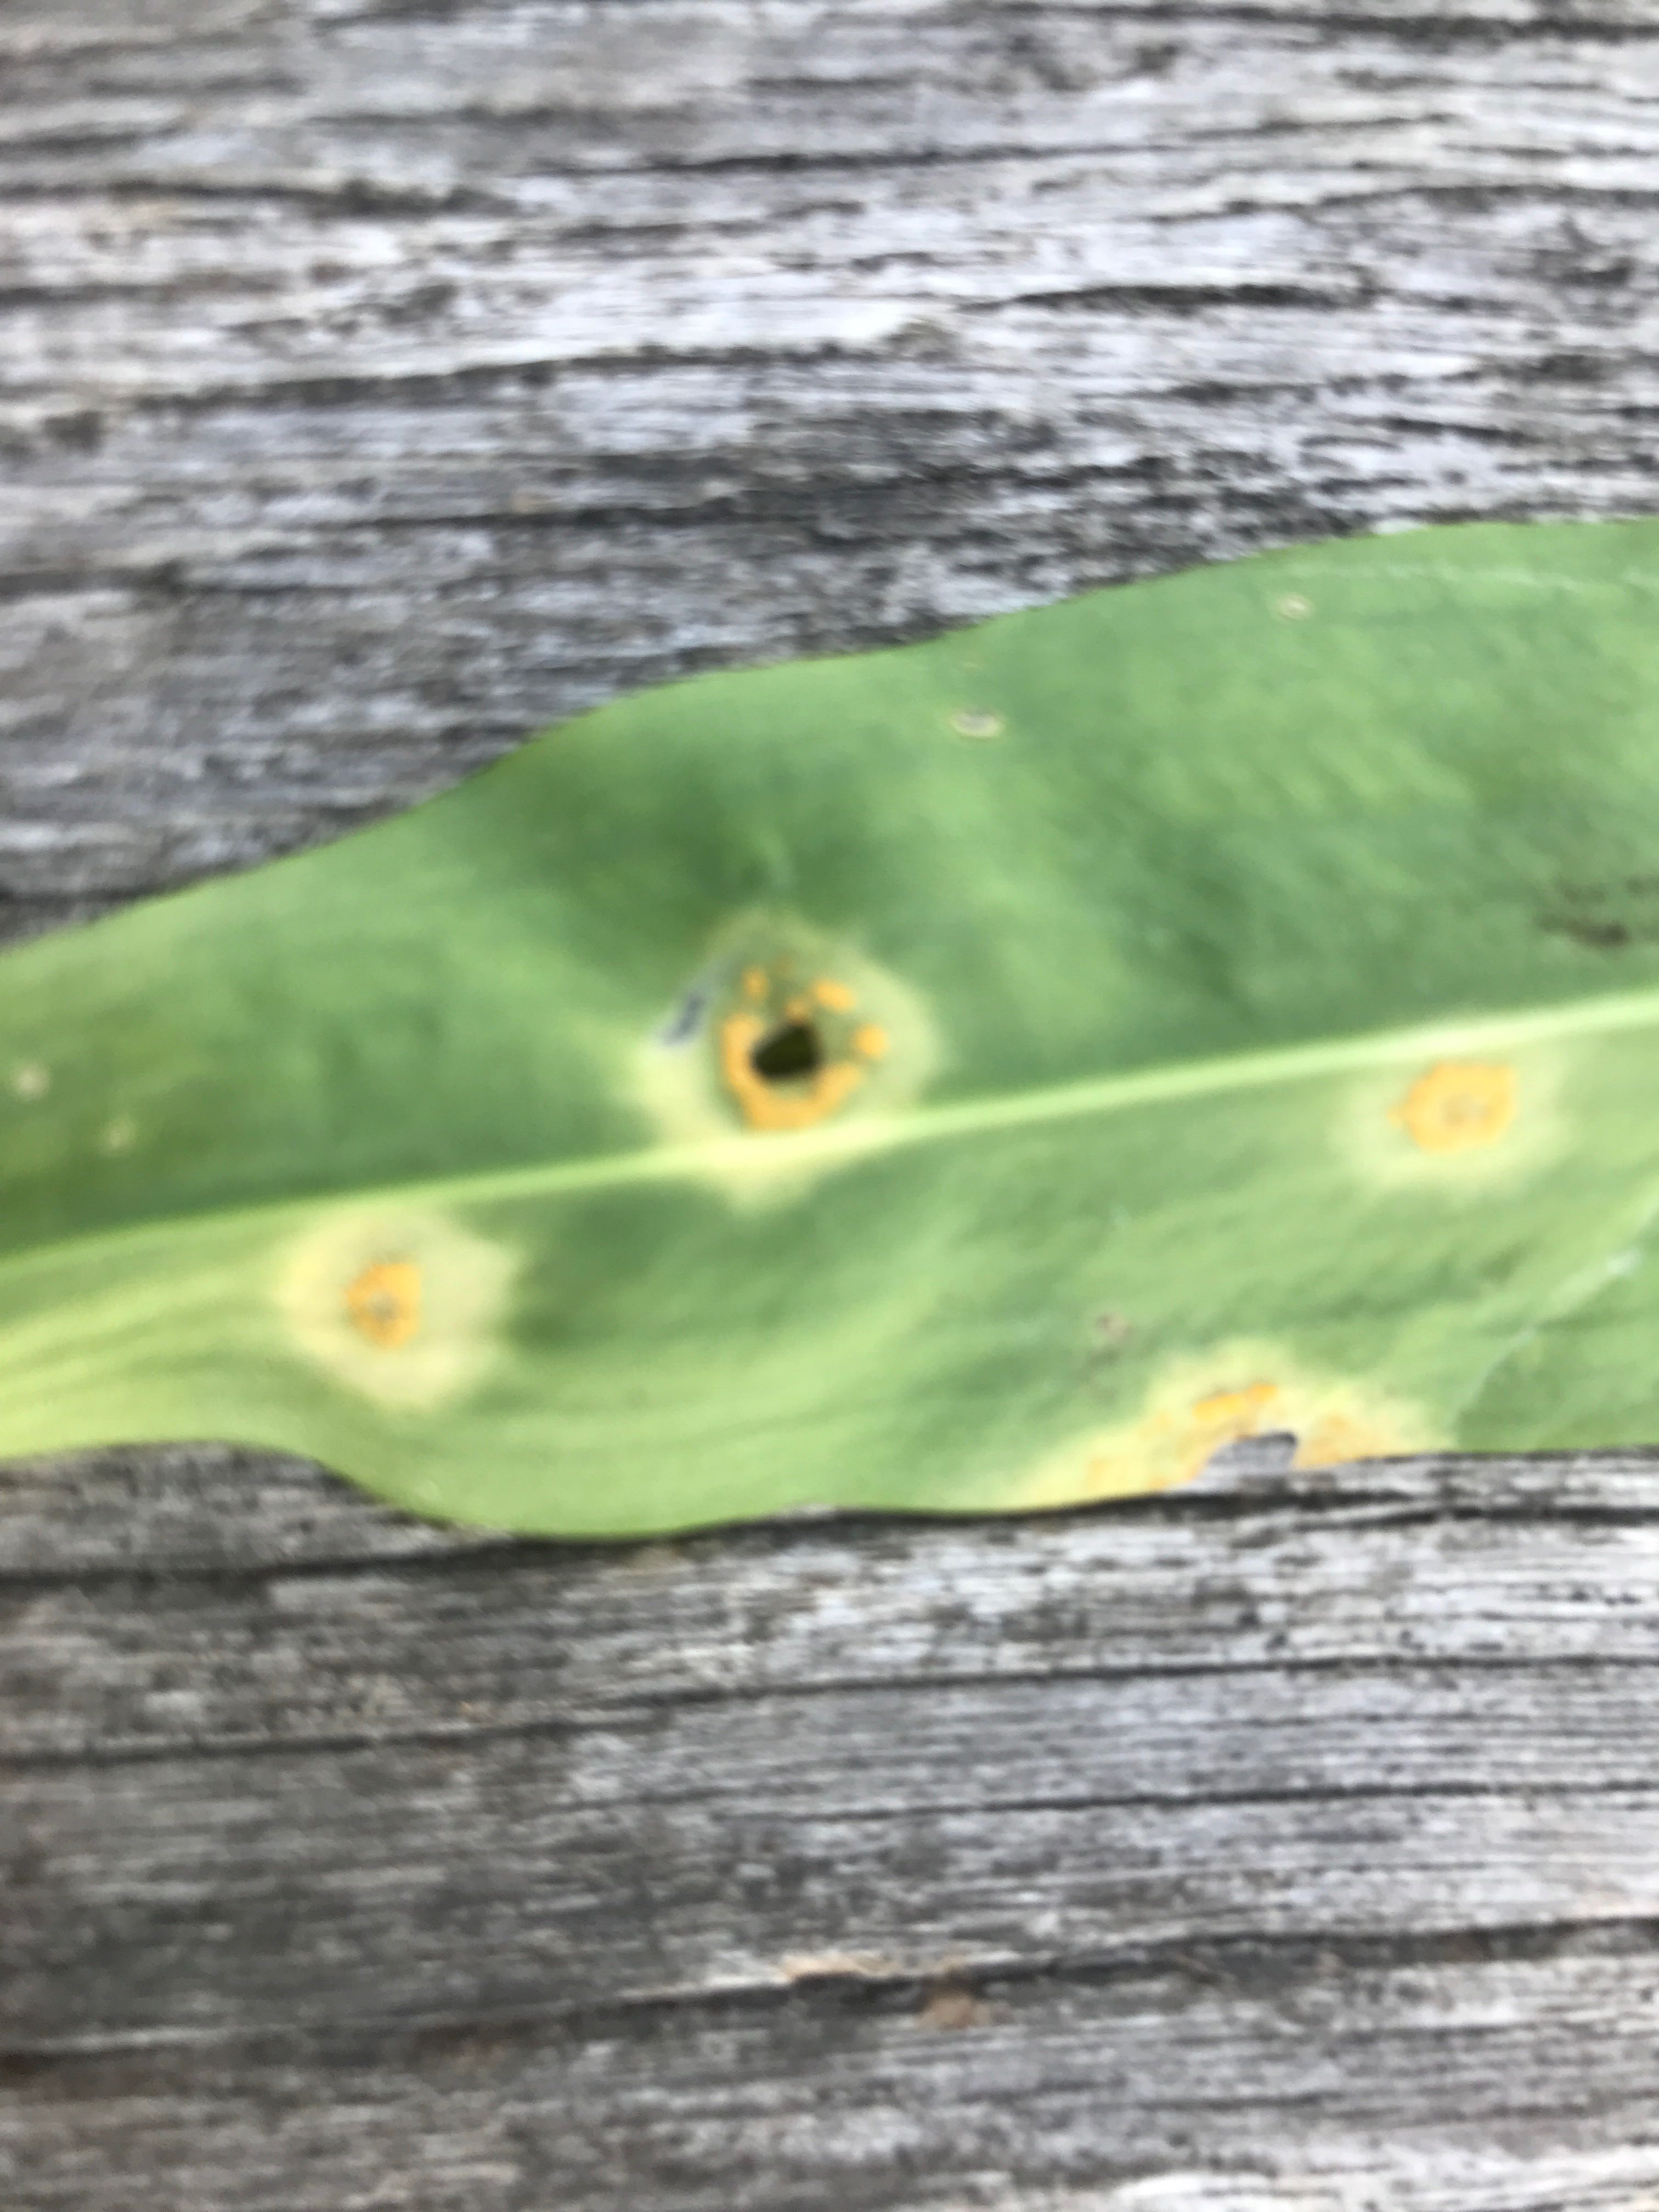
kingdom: Fungi
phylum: Basidiomycota
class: Pucciniomycetes
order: Pucciniales
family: Melampsoraceae
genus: Melampsora
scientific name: Melampsora
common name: skorperust
